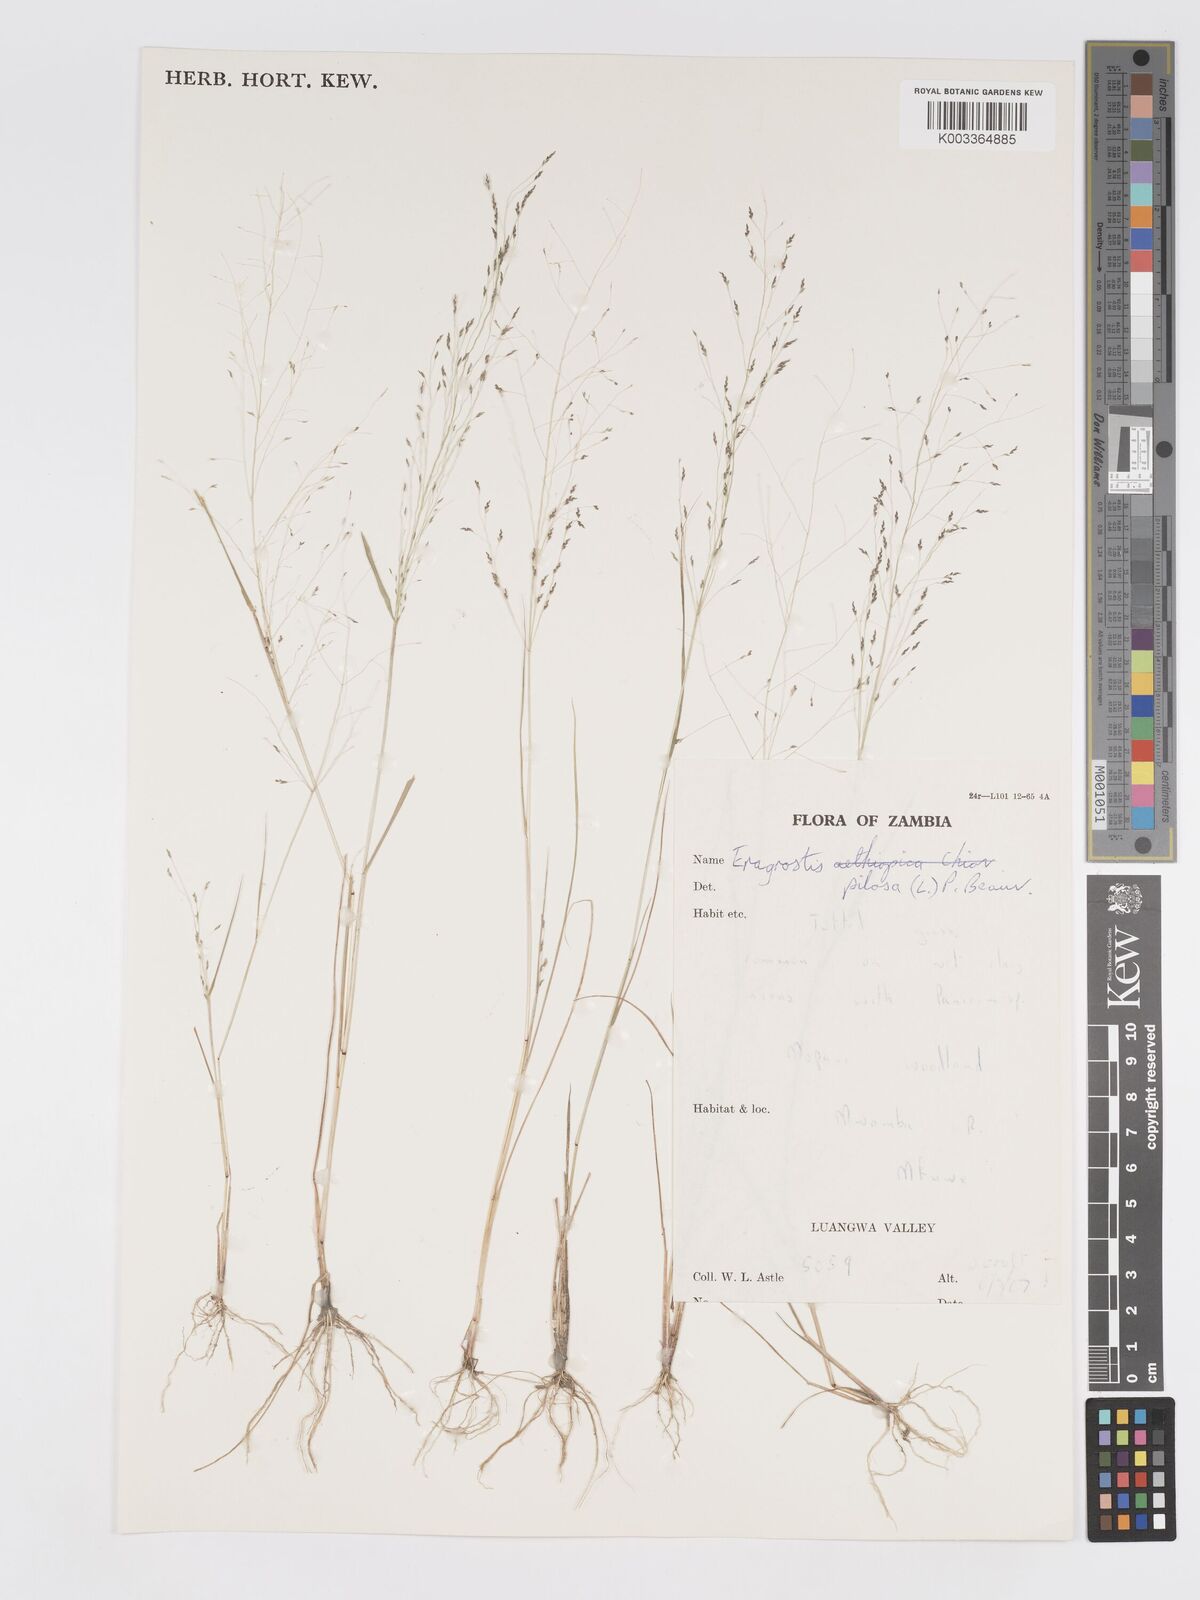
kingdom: Plantae
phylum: Tracheophyta
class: Liliopsida
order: Poales
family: Poaceae
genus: Eragrostis
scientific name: Eragrostis pilosa
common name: Indian lovegrass
